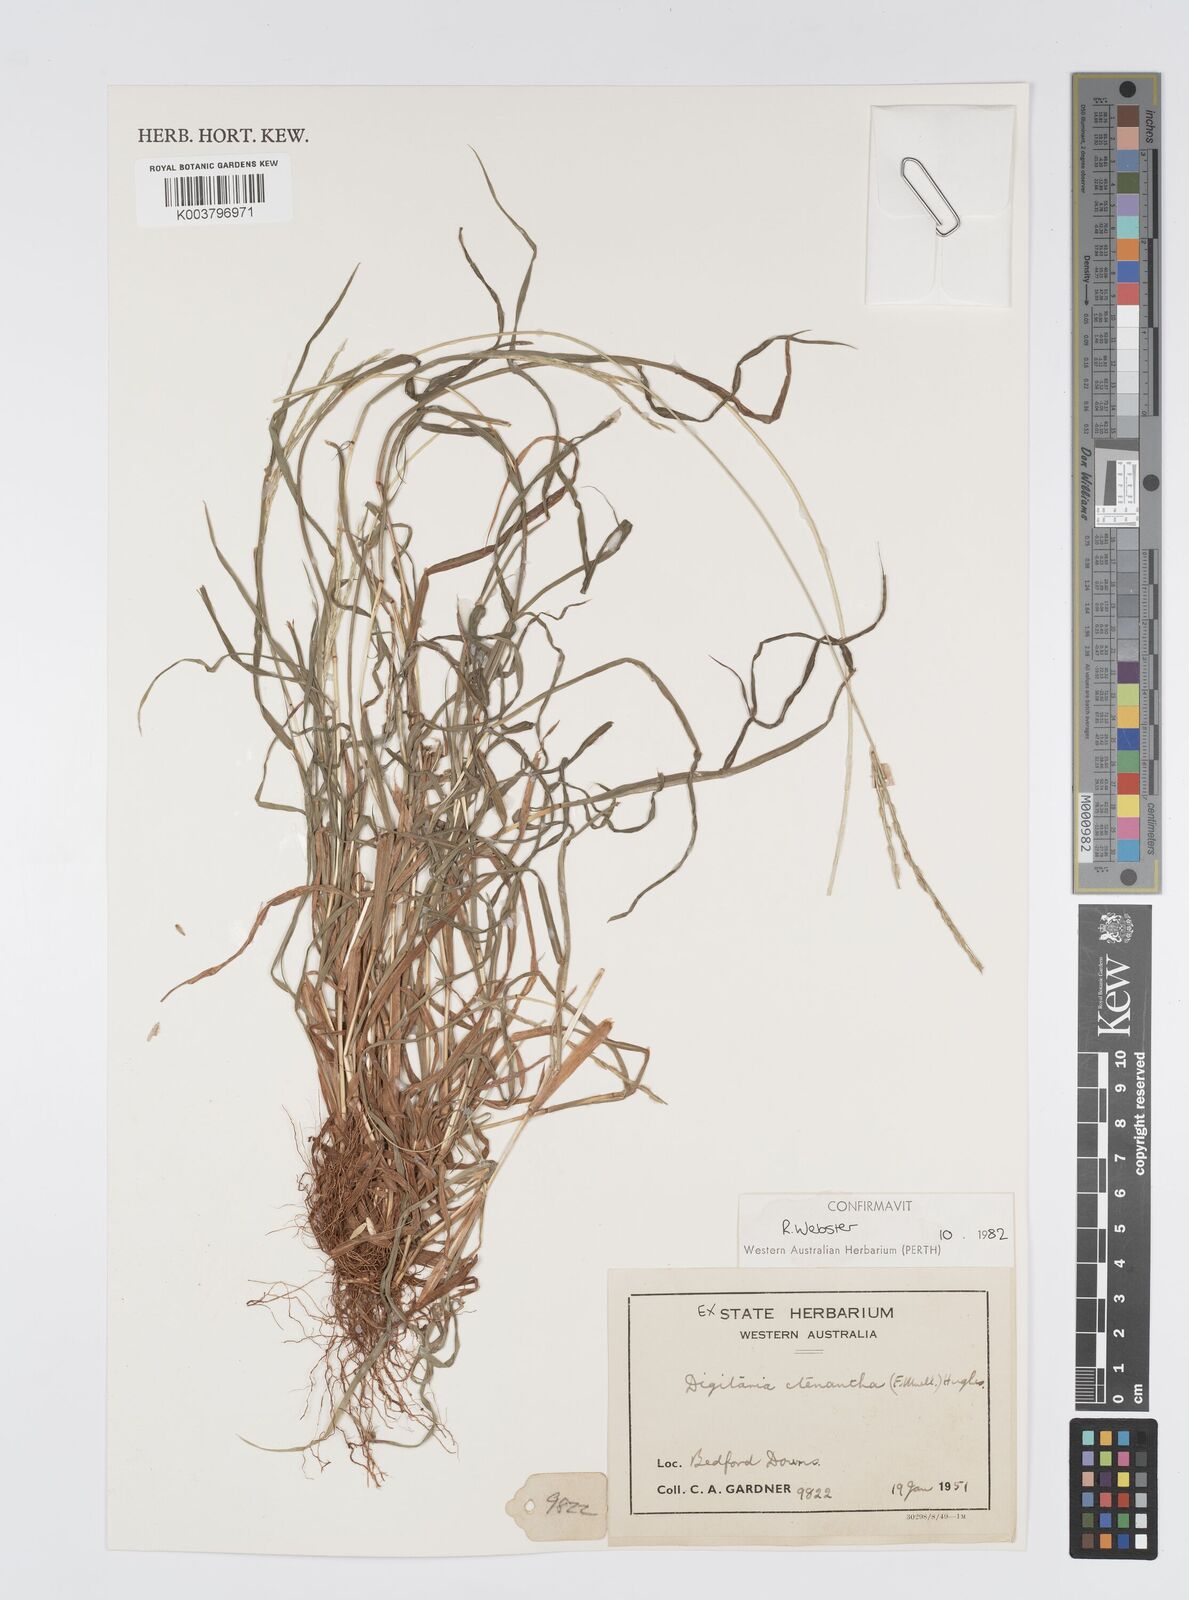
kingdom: Plantae
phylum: Tracheophyta
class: Liliopsida
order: Poales
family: Poaceae
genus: Digitaria
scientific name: Digitaria ctenantha
